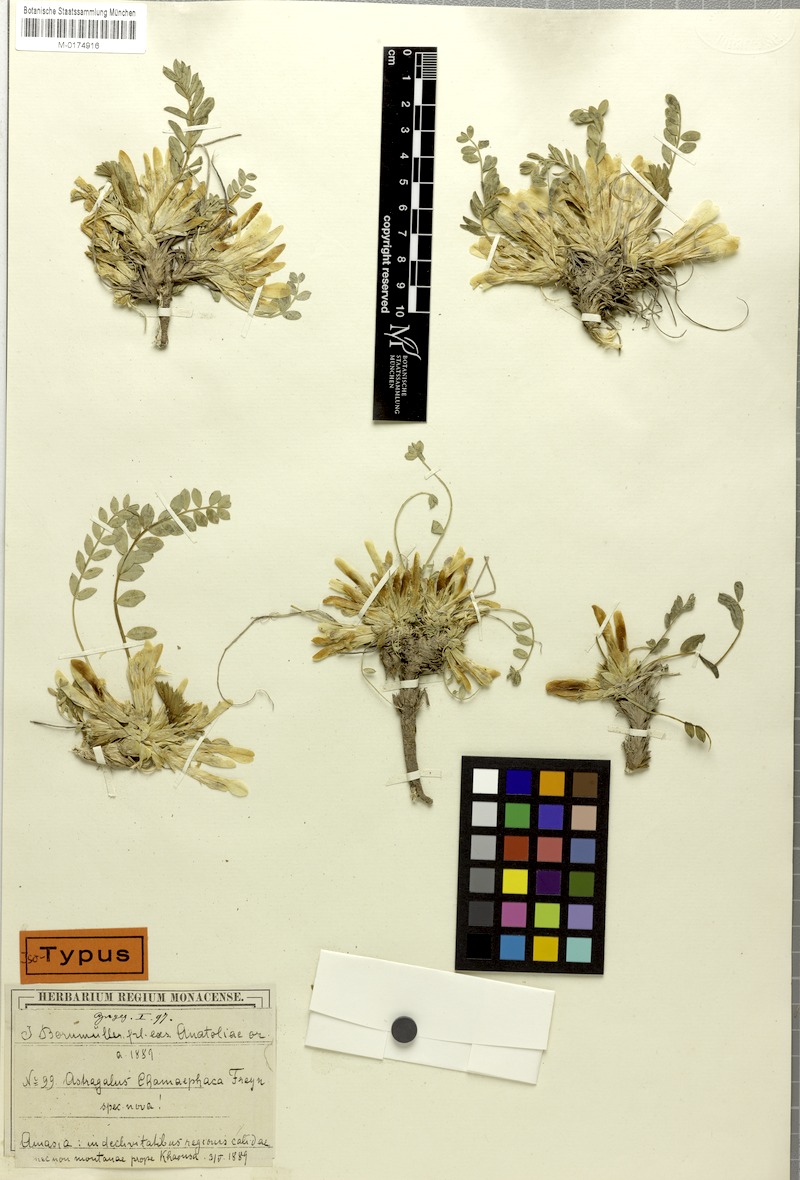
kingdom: Plantae
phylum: Tracheophyta
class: Magnoliopsida
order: Fabales
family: Fabaceae
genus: Astragalus
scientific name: Astragalus chamaephaca
